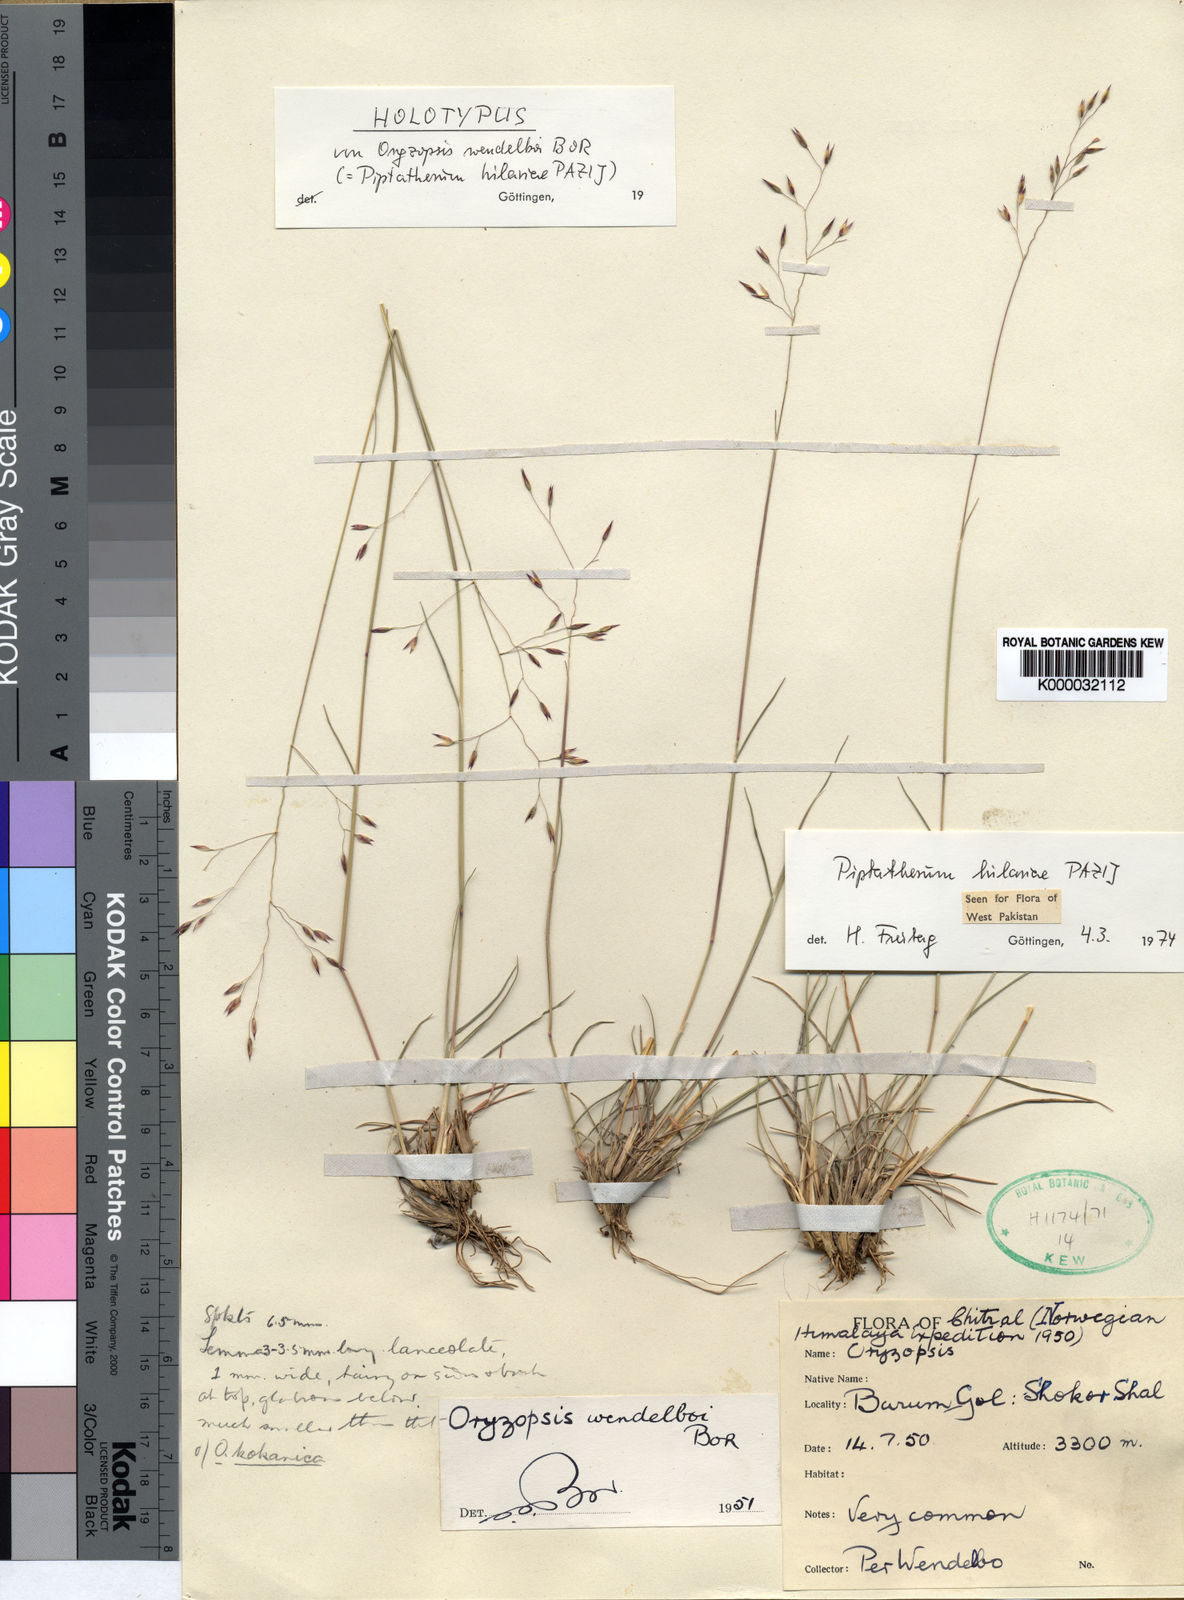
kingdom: Plantae
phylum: Tracheophyta
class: Liliopsida
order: Poales
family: Poaceae
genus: Piptatherum
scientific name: Piptatherum hilariae
